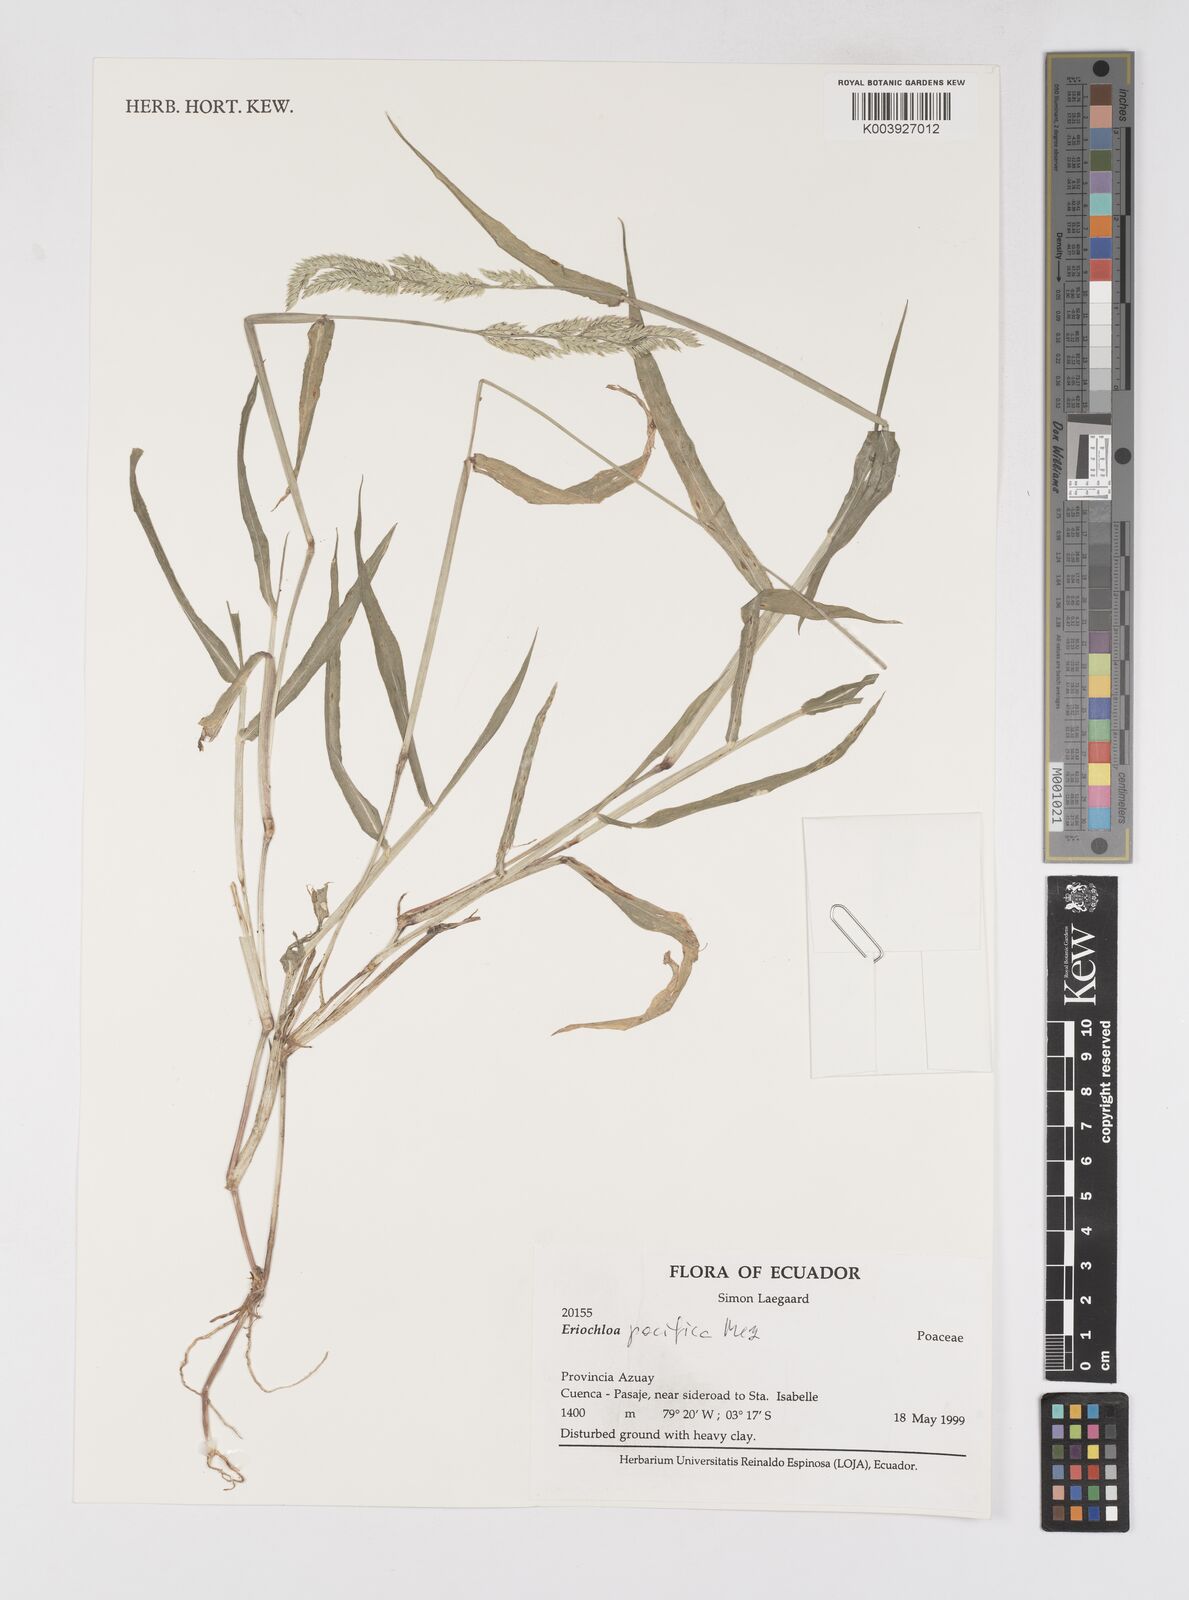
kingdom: Plantae
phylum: Tracheophyta
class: Liliopsida
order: Poales
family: Poaceae
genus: Eriochloa
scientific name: Eriochloa pacifica
